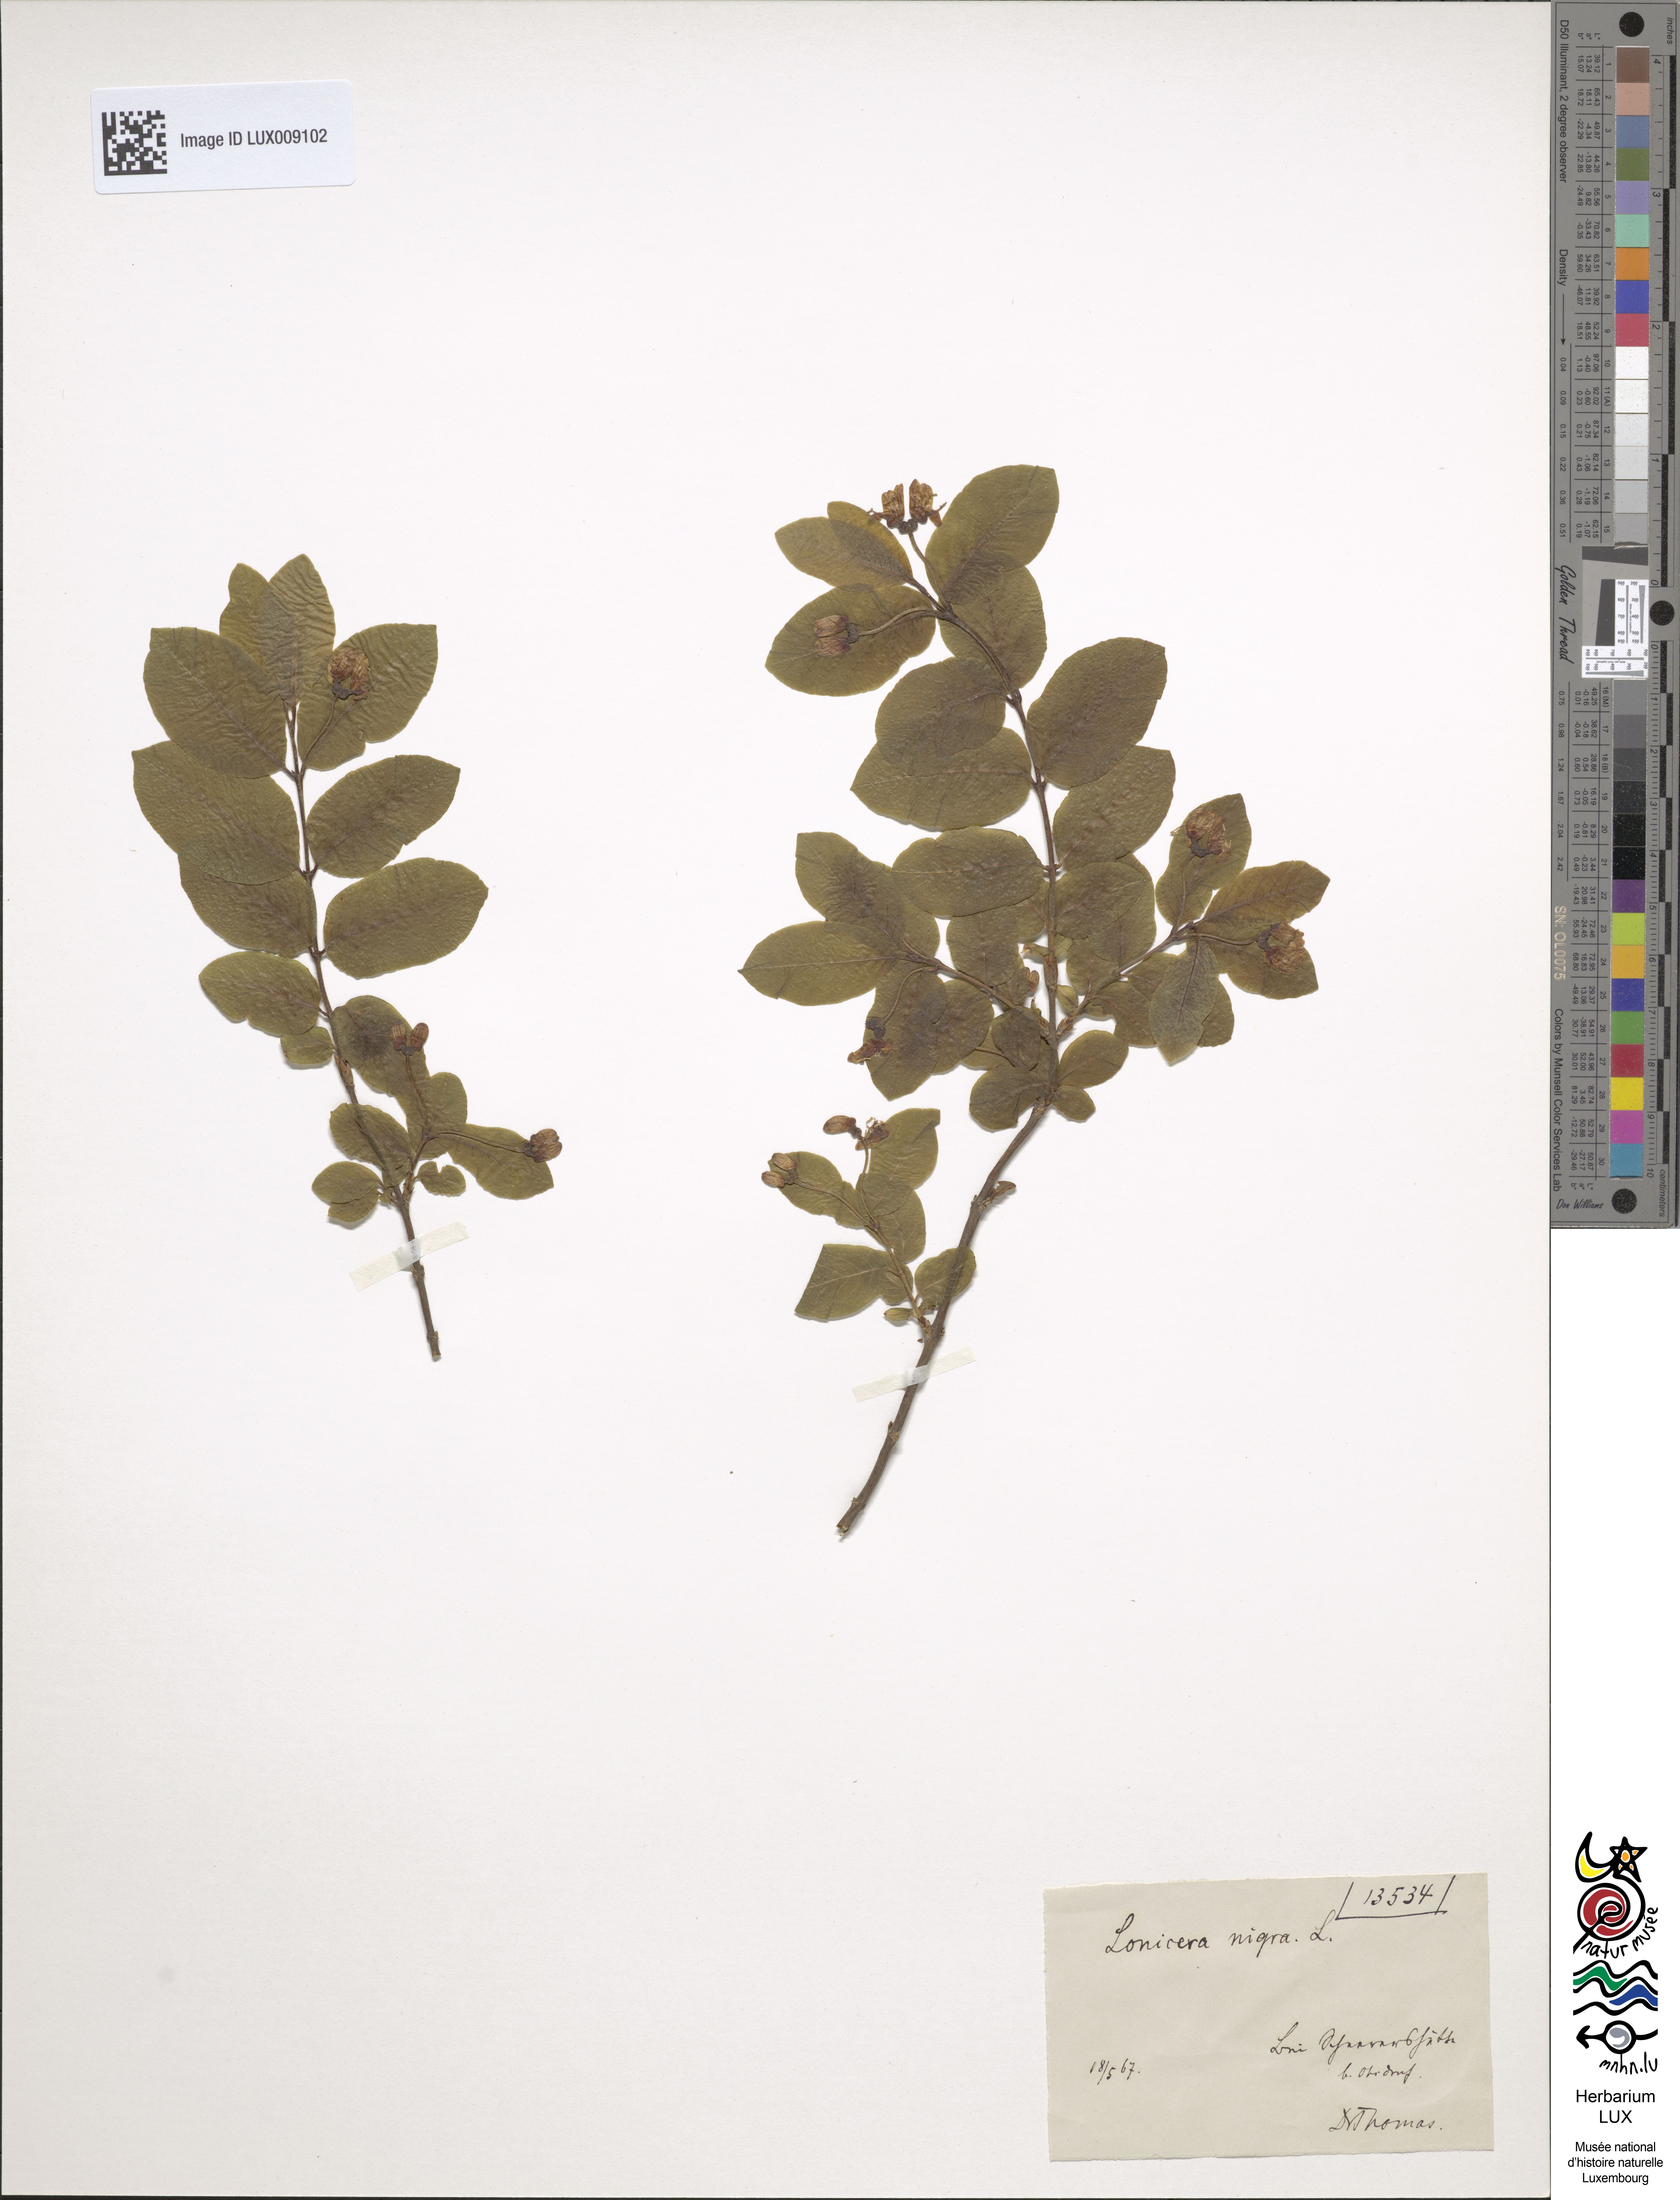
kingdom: Plantae
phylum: Tracheophyta
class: Magnoliopsida
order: Dipsacales
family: Caprifoliaceae
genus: Lonicera
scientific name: Lonicera nigra
